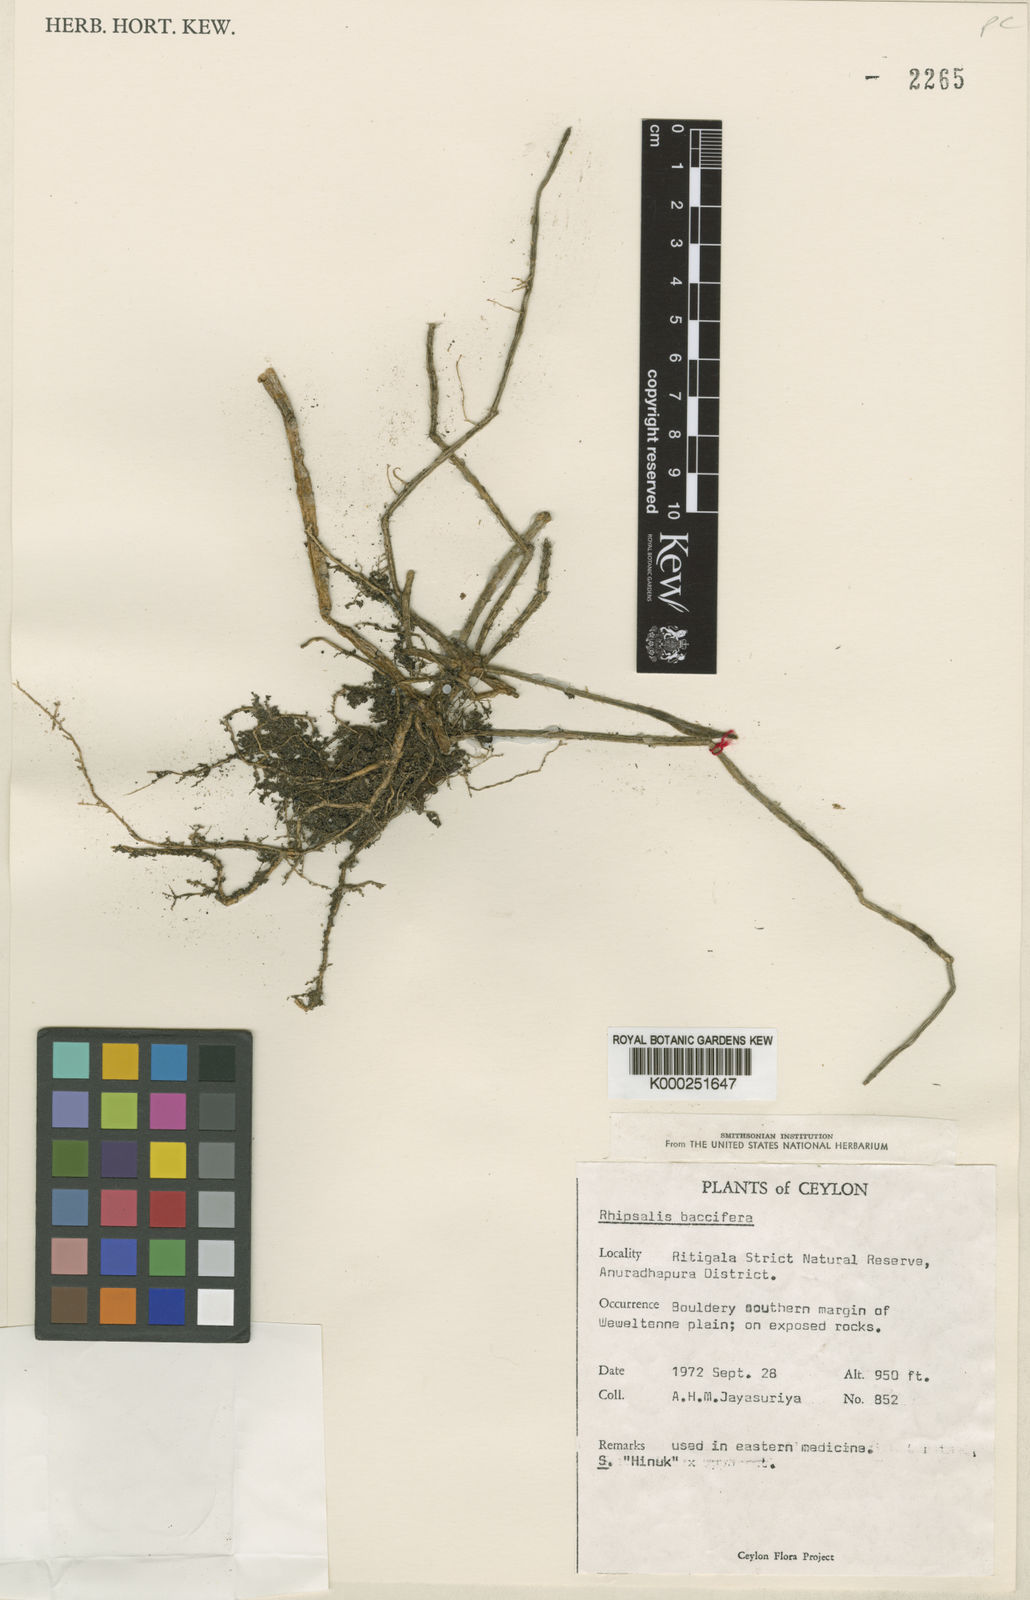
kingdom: Plantae
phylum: Tracheophyta
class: Magnoliopsida
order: Caryophyllales
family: Cactaceae
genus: Rhipsalis
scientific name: Rhipsalis baccifera
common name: Mistletoe cactus
